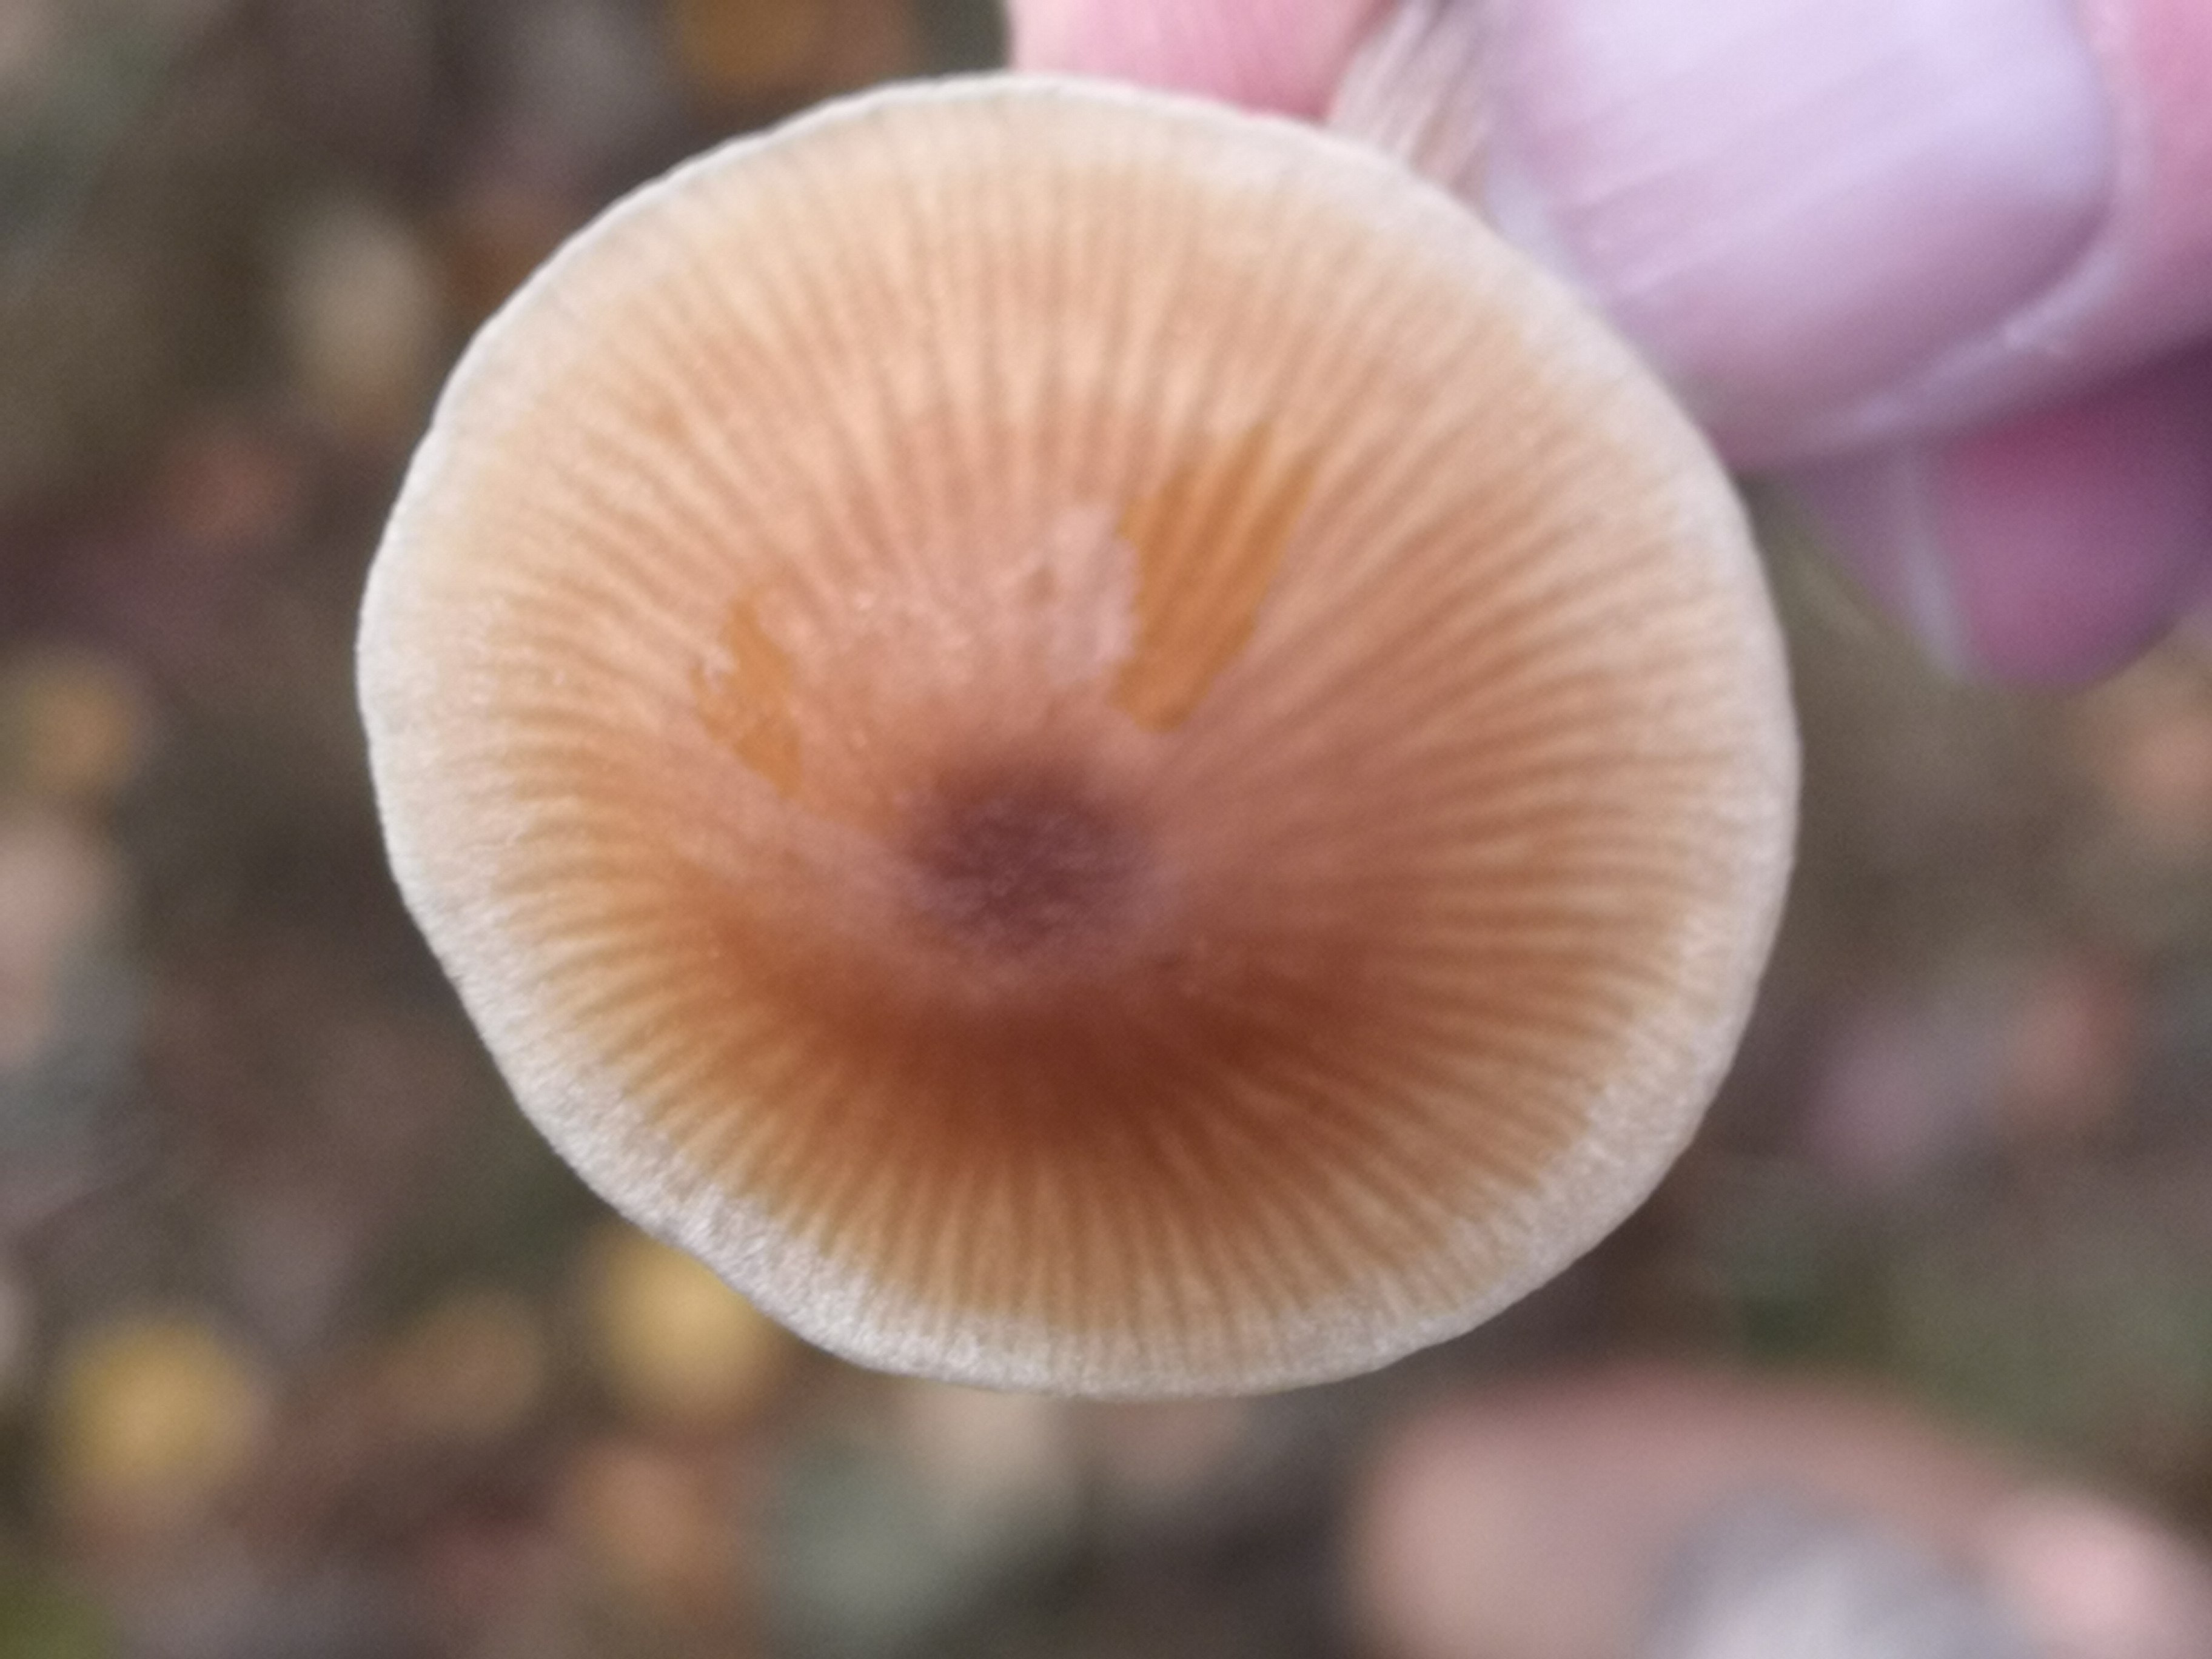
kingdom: Fungi
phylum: Basidiomycota
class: Agaricomycetes
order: Agaricales
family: Entolomataceae
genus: Entoloma
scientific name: Entoloma cetratum
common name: voks-rødblad
